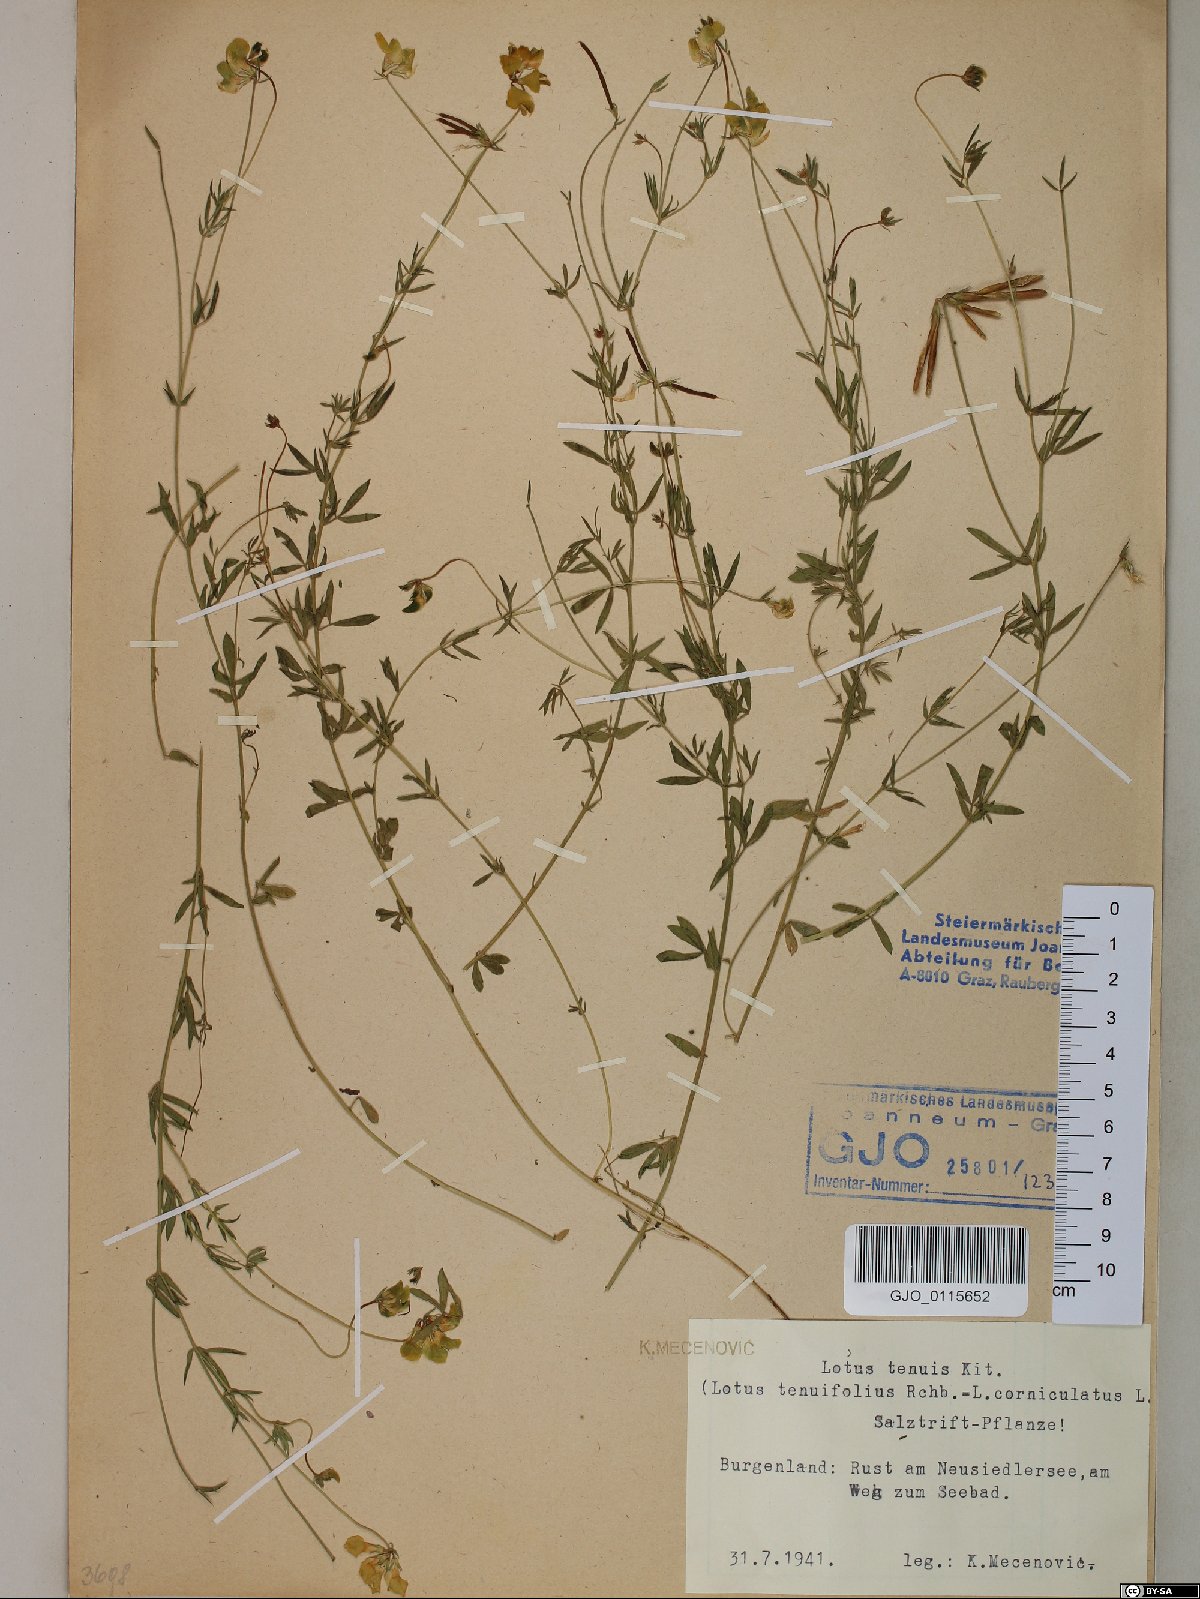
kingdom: Plantae
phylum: Tracheophyta
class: Magnoliopsida
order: Fabales
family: Fabaceae
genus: Lotus
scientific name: Lotus tenuis
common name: Narrow-leaved bird's-foot-trefoil
